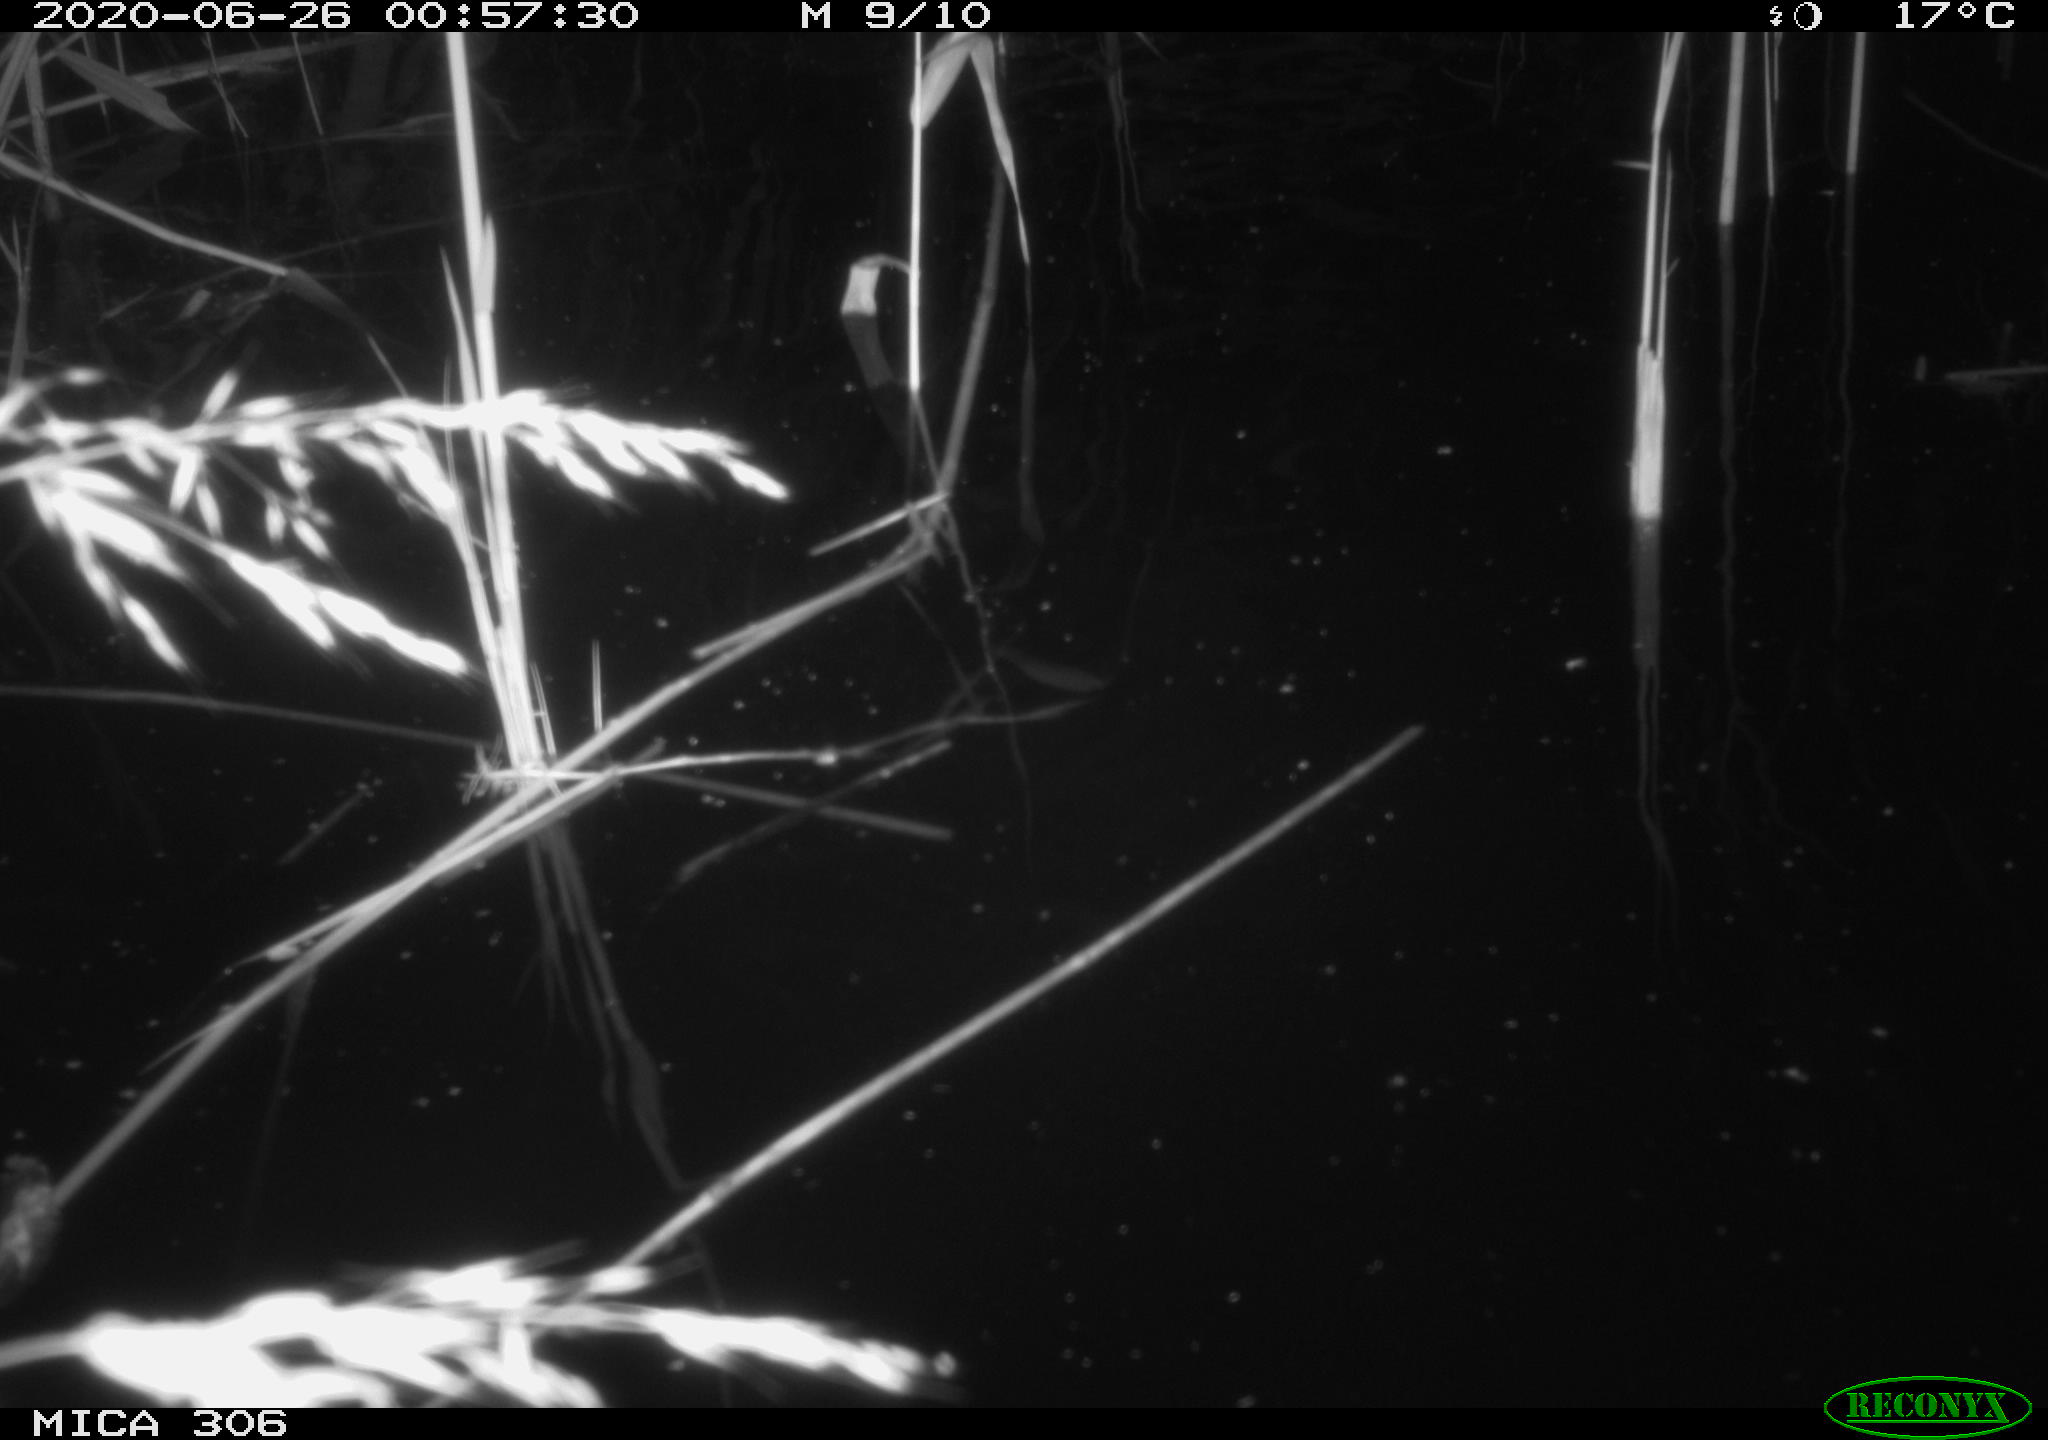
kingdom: Animalia
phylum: Chordata
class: Mammalia
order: Rodentia
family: Muridae
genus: Rattus
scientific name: Rattus norvegicus
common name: Brown rat
